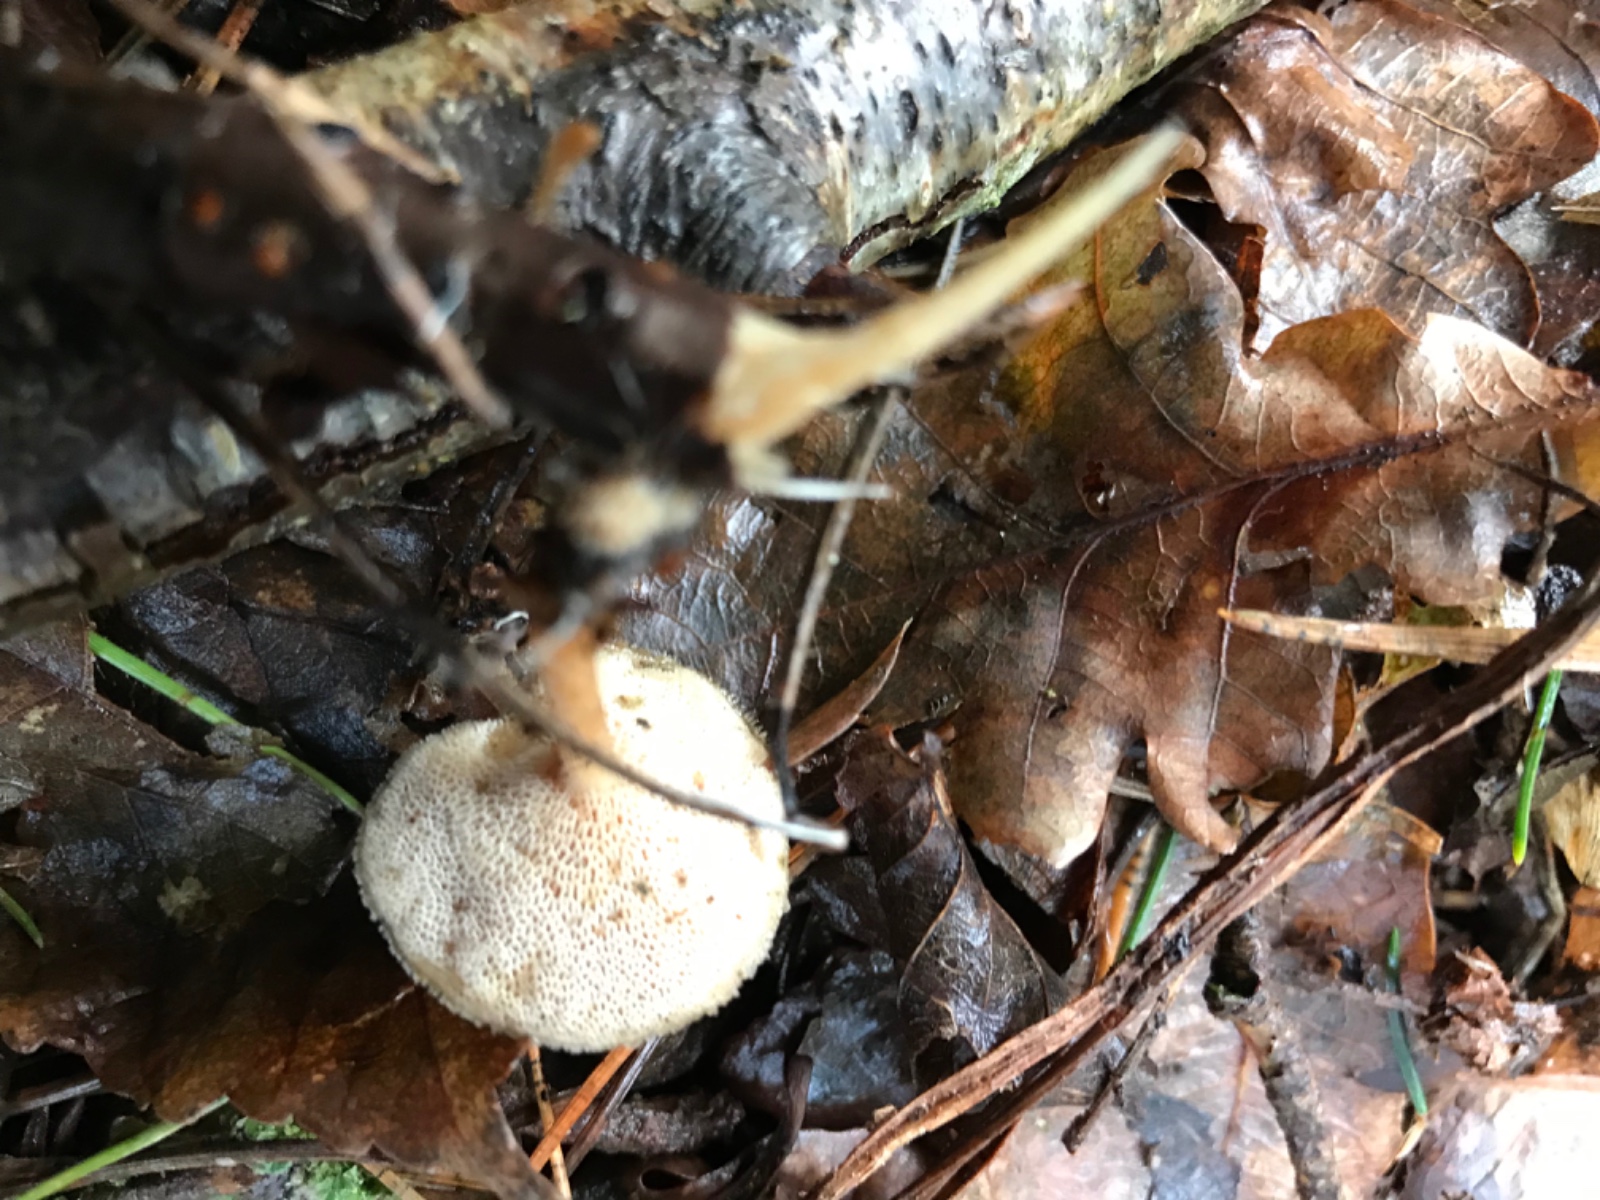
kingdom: Fungi
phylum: Basidiomycota
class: Agaricomycetes
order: Polyporales
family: Polyporaceae
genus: Lentinus
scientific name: Lentinus brumalis
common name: vinter-stilkporesvamp
